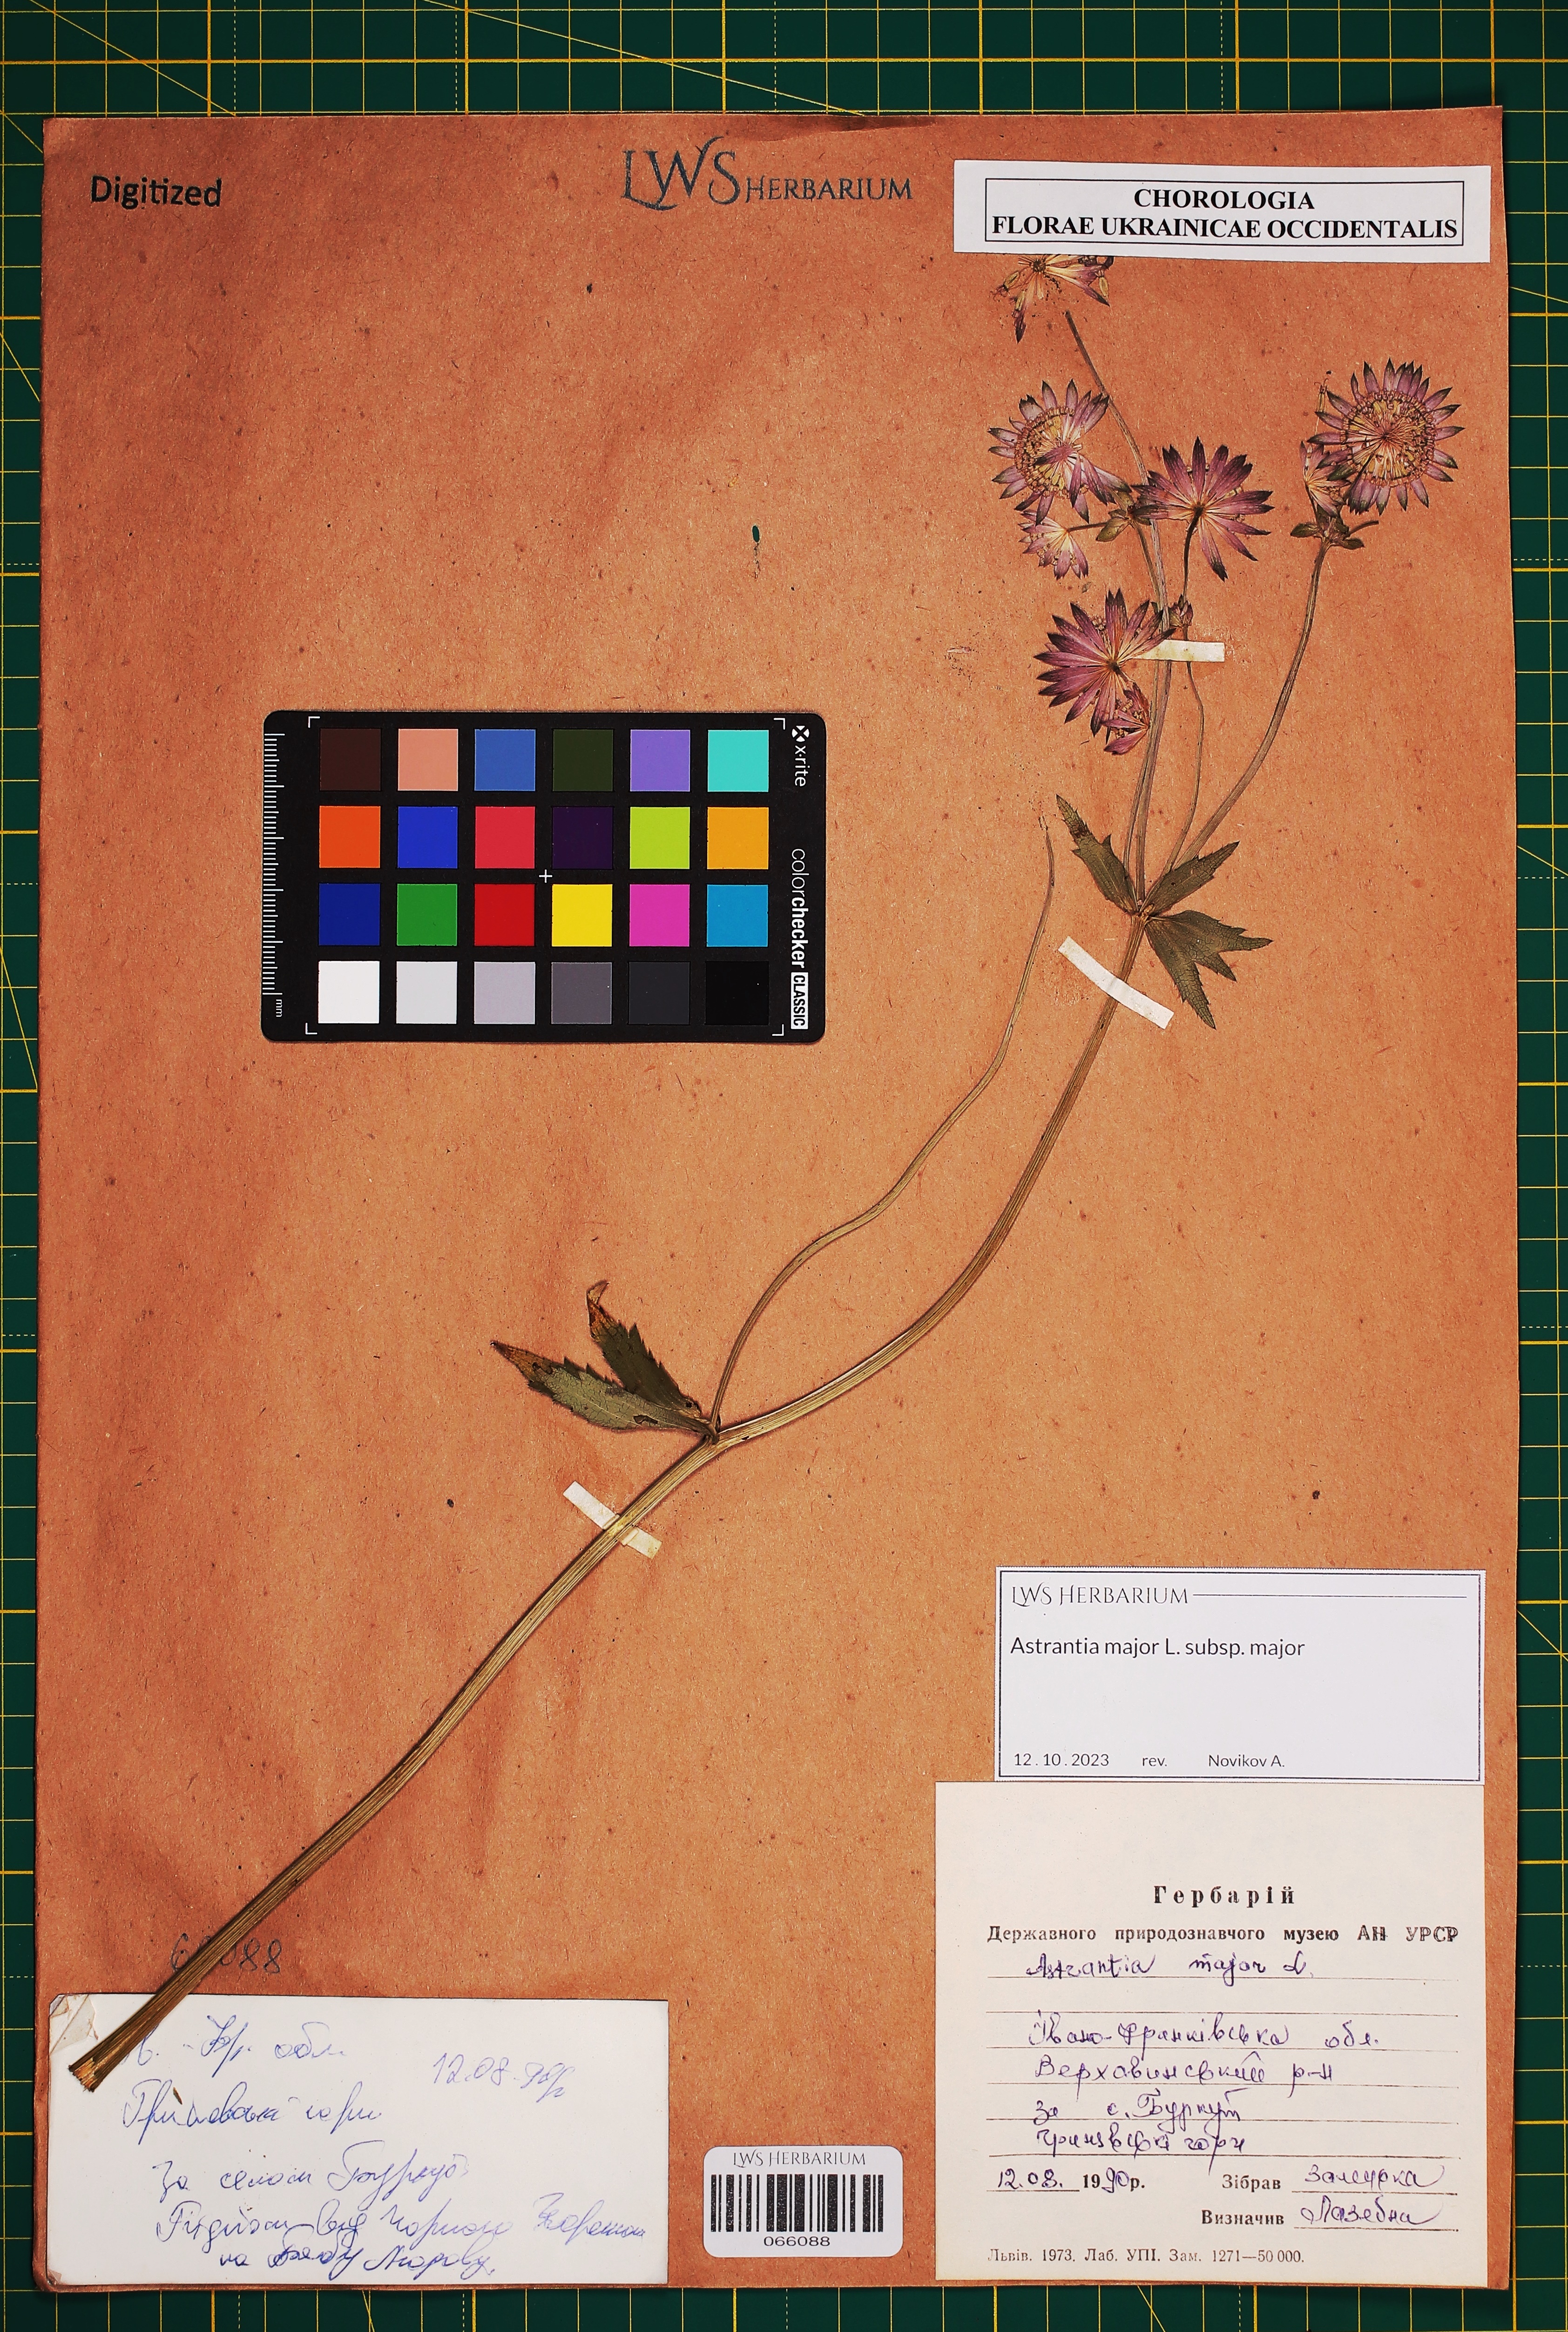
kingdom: Plantae
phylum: Tracheophyta
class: Magnoliopsida
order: Apiales
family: Apiaceae
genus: Astrantia
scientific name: Astrantia major
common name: Greater masterwort
